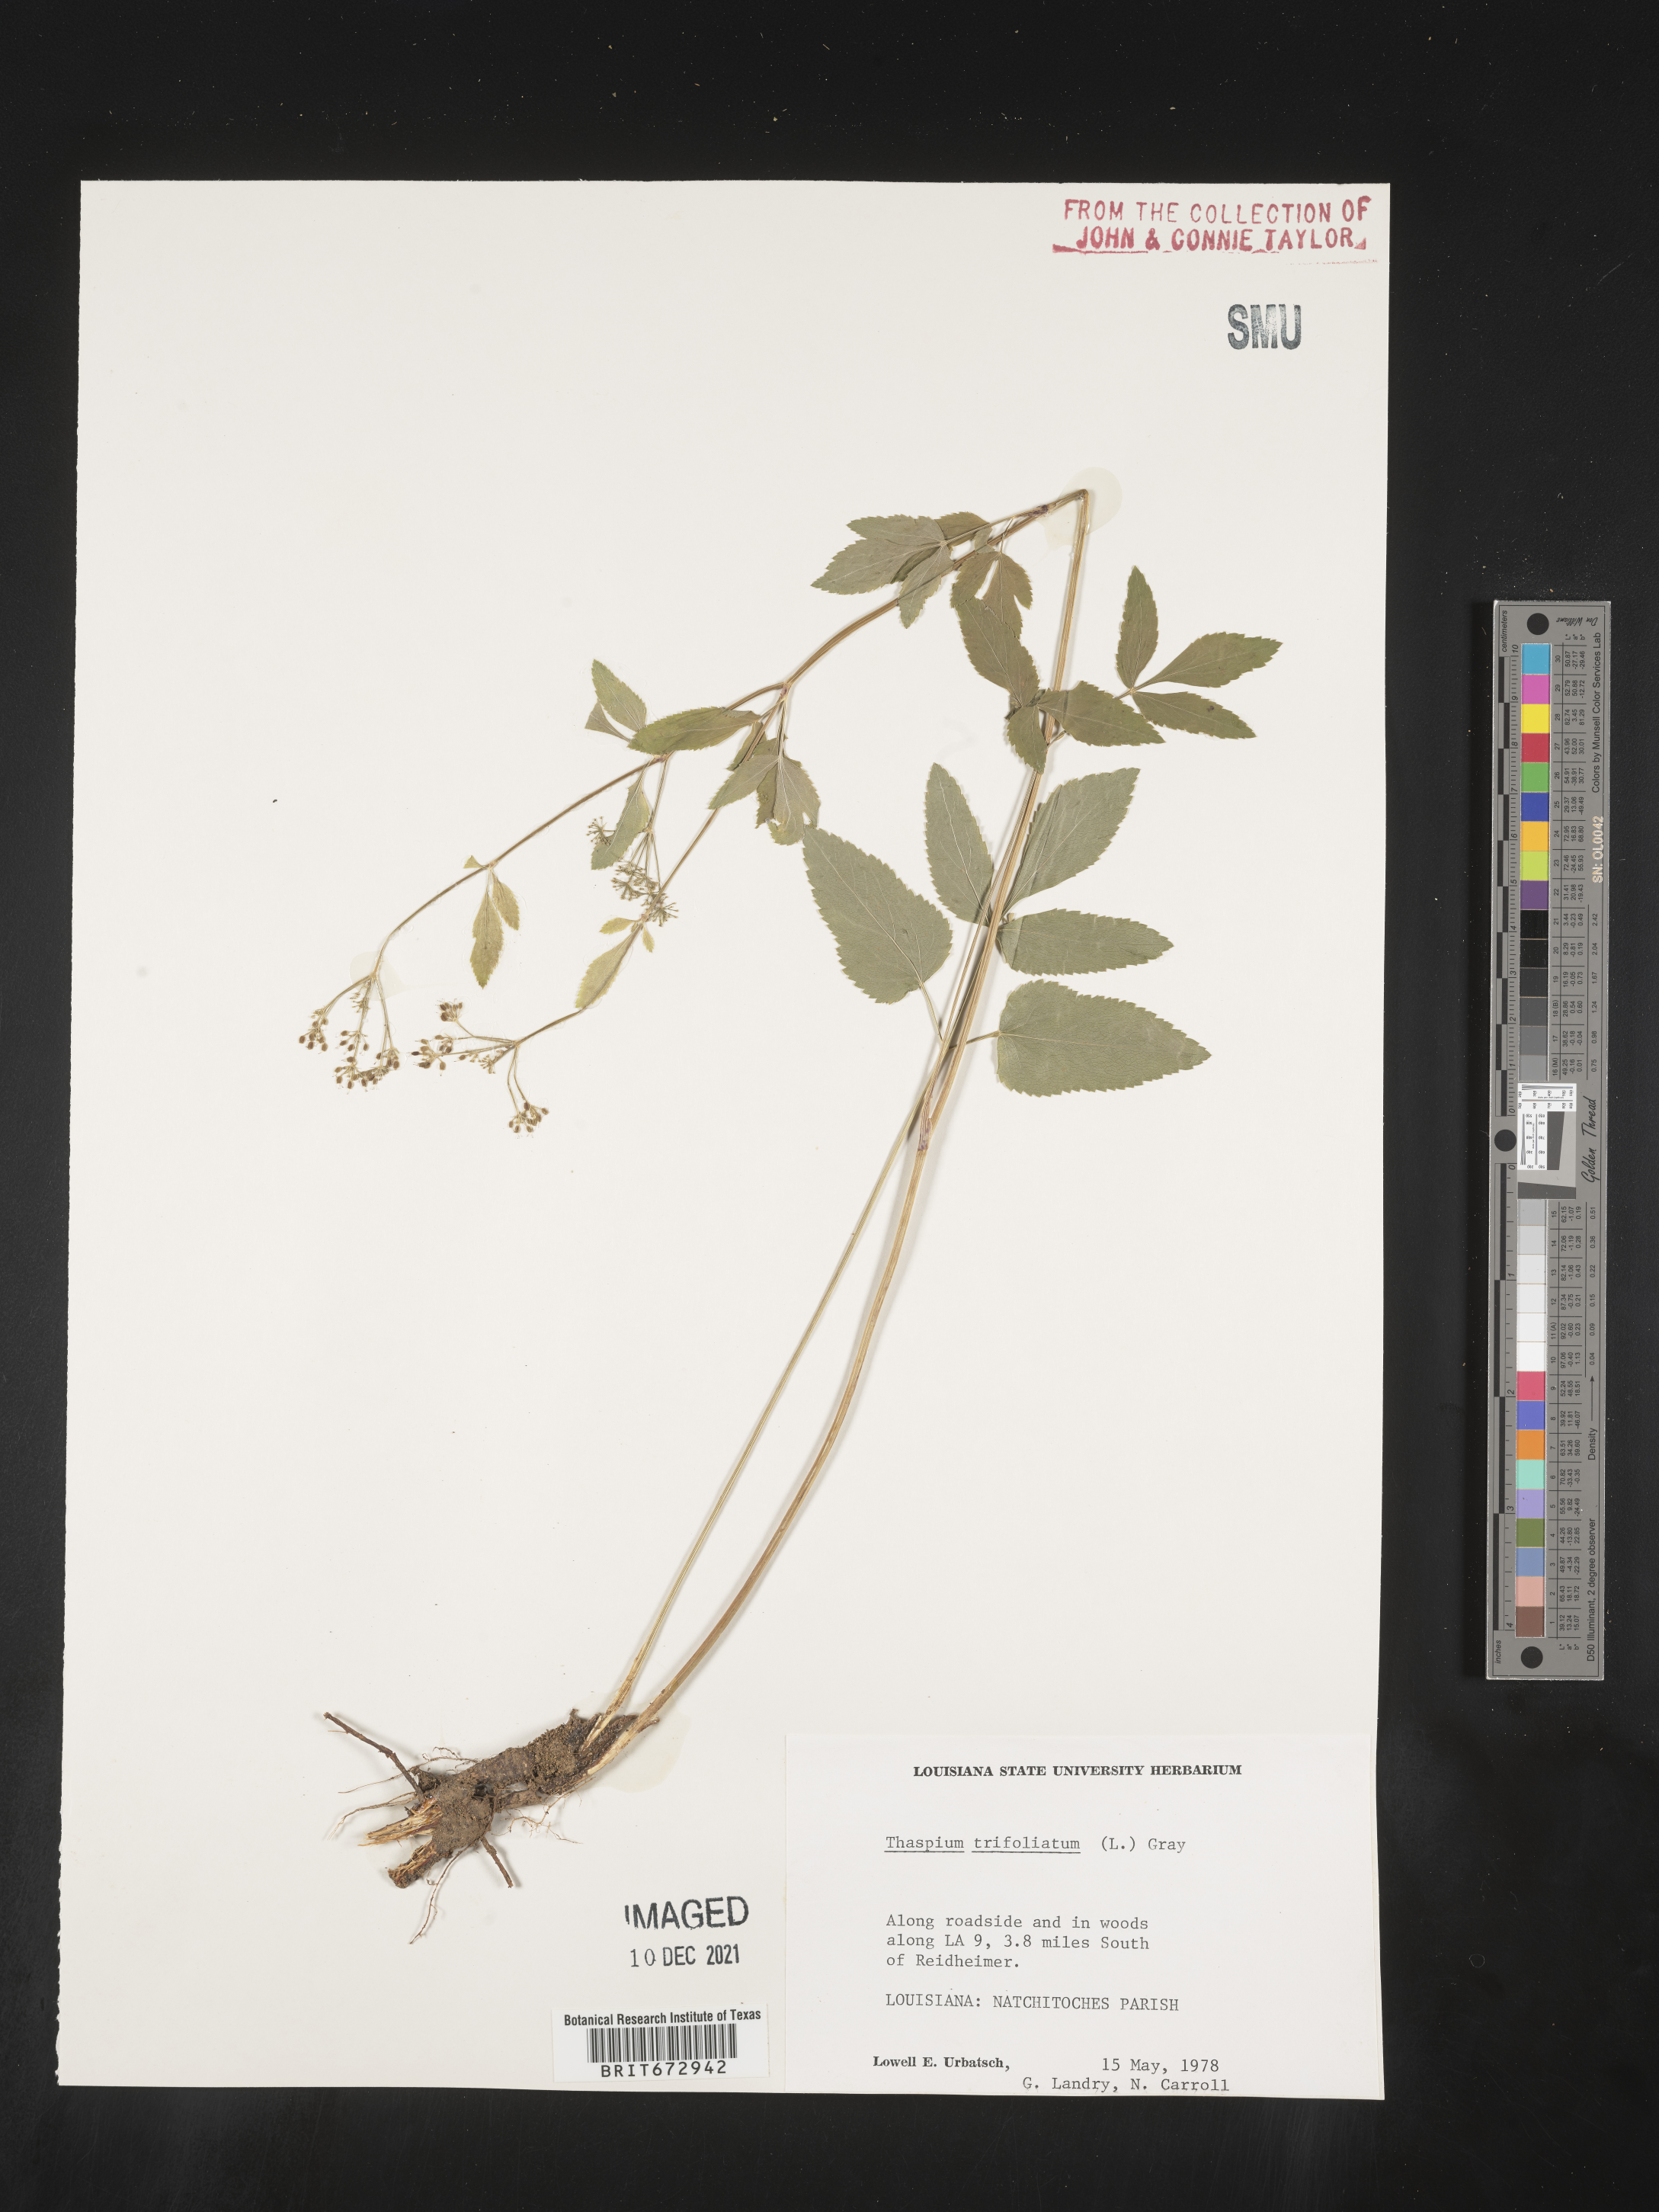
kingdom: Plantae
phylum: Tracheophyta
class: Magnoliopsida
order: Apiales
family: Apiaceae
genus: Thaspium
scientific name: Thaspium
